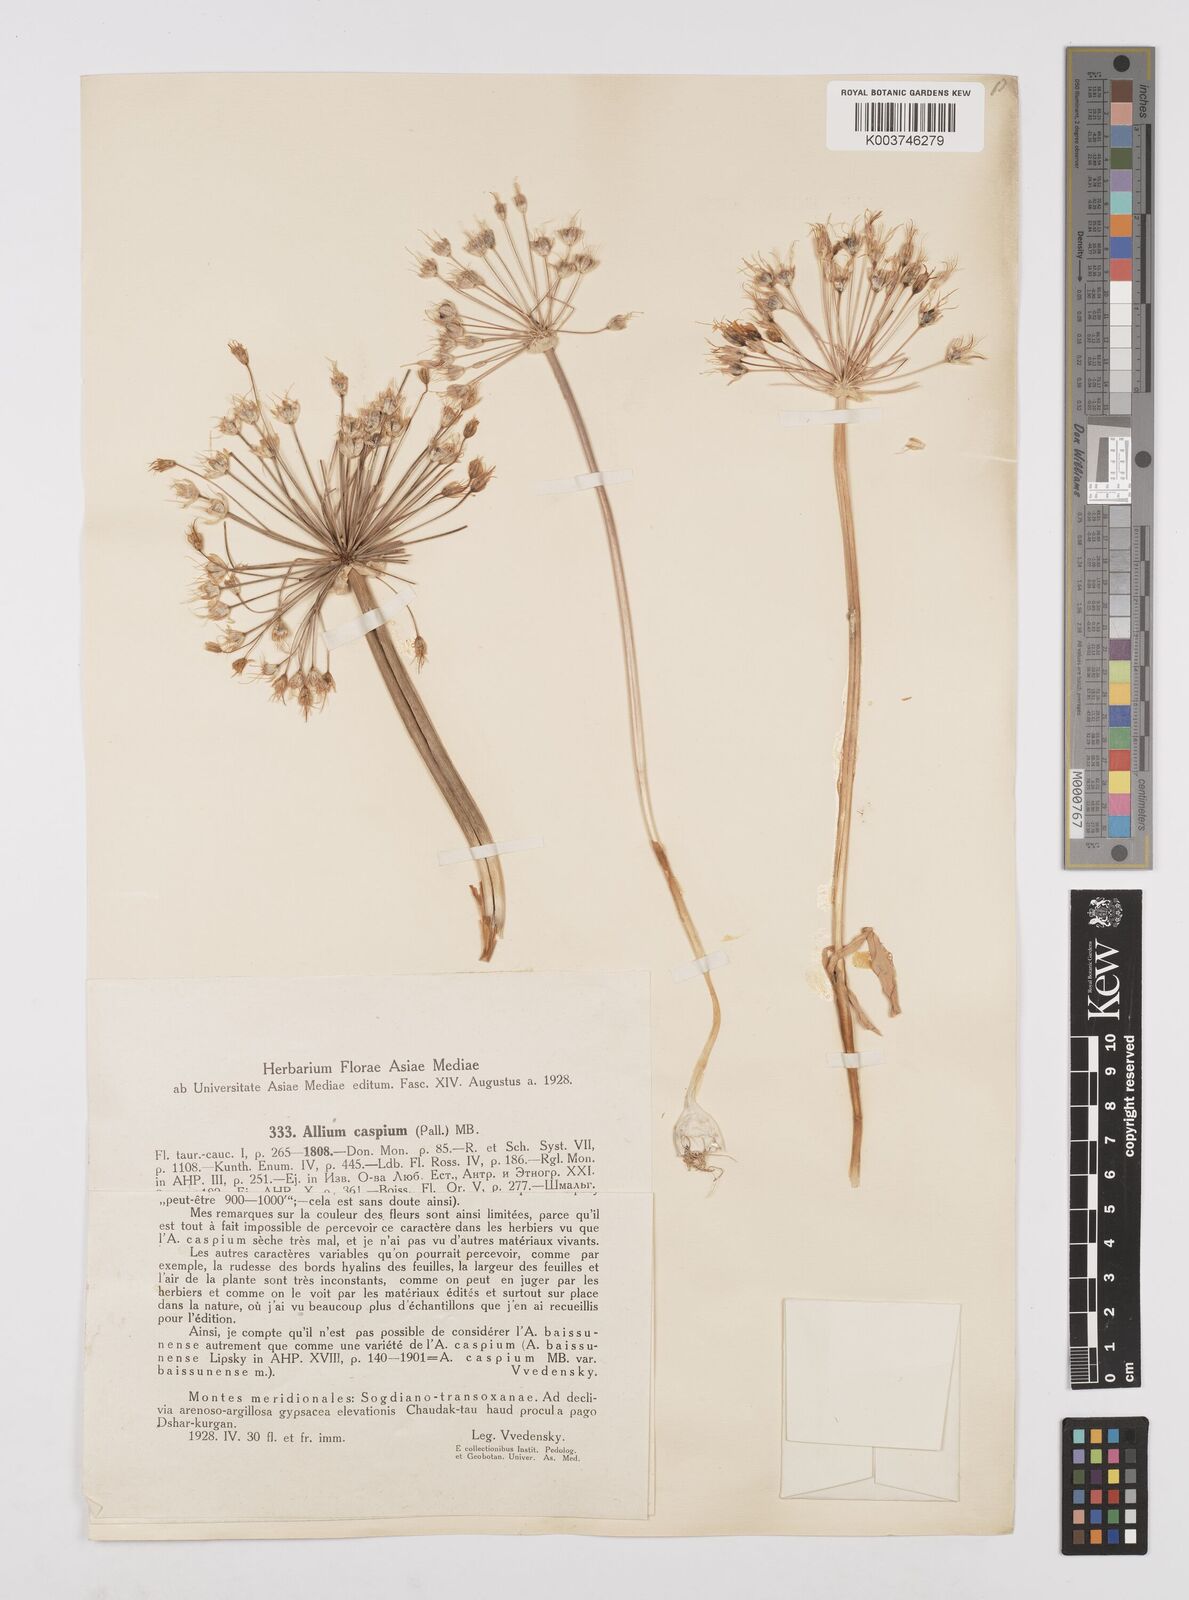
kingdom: Plantae
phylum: Tracheophyta
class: Liliopsida
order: Asparagales
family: Amaryllidaceae
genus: Allium
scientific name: Allium caspium
